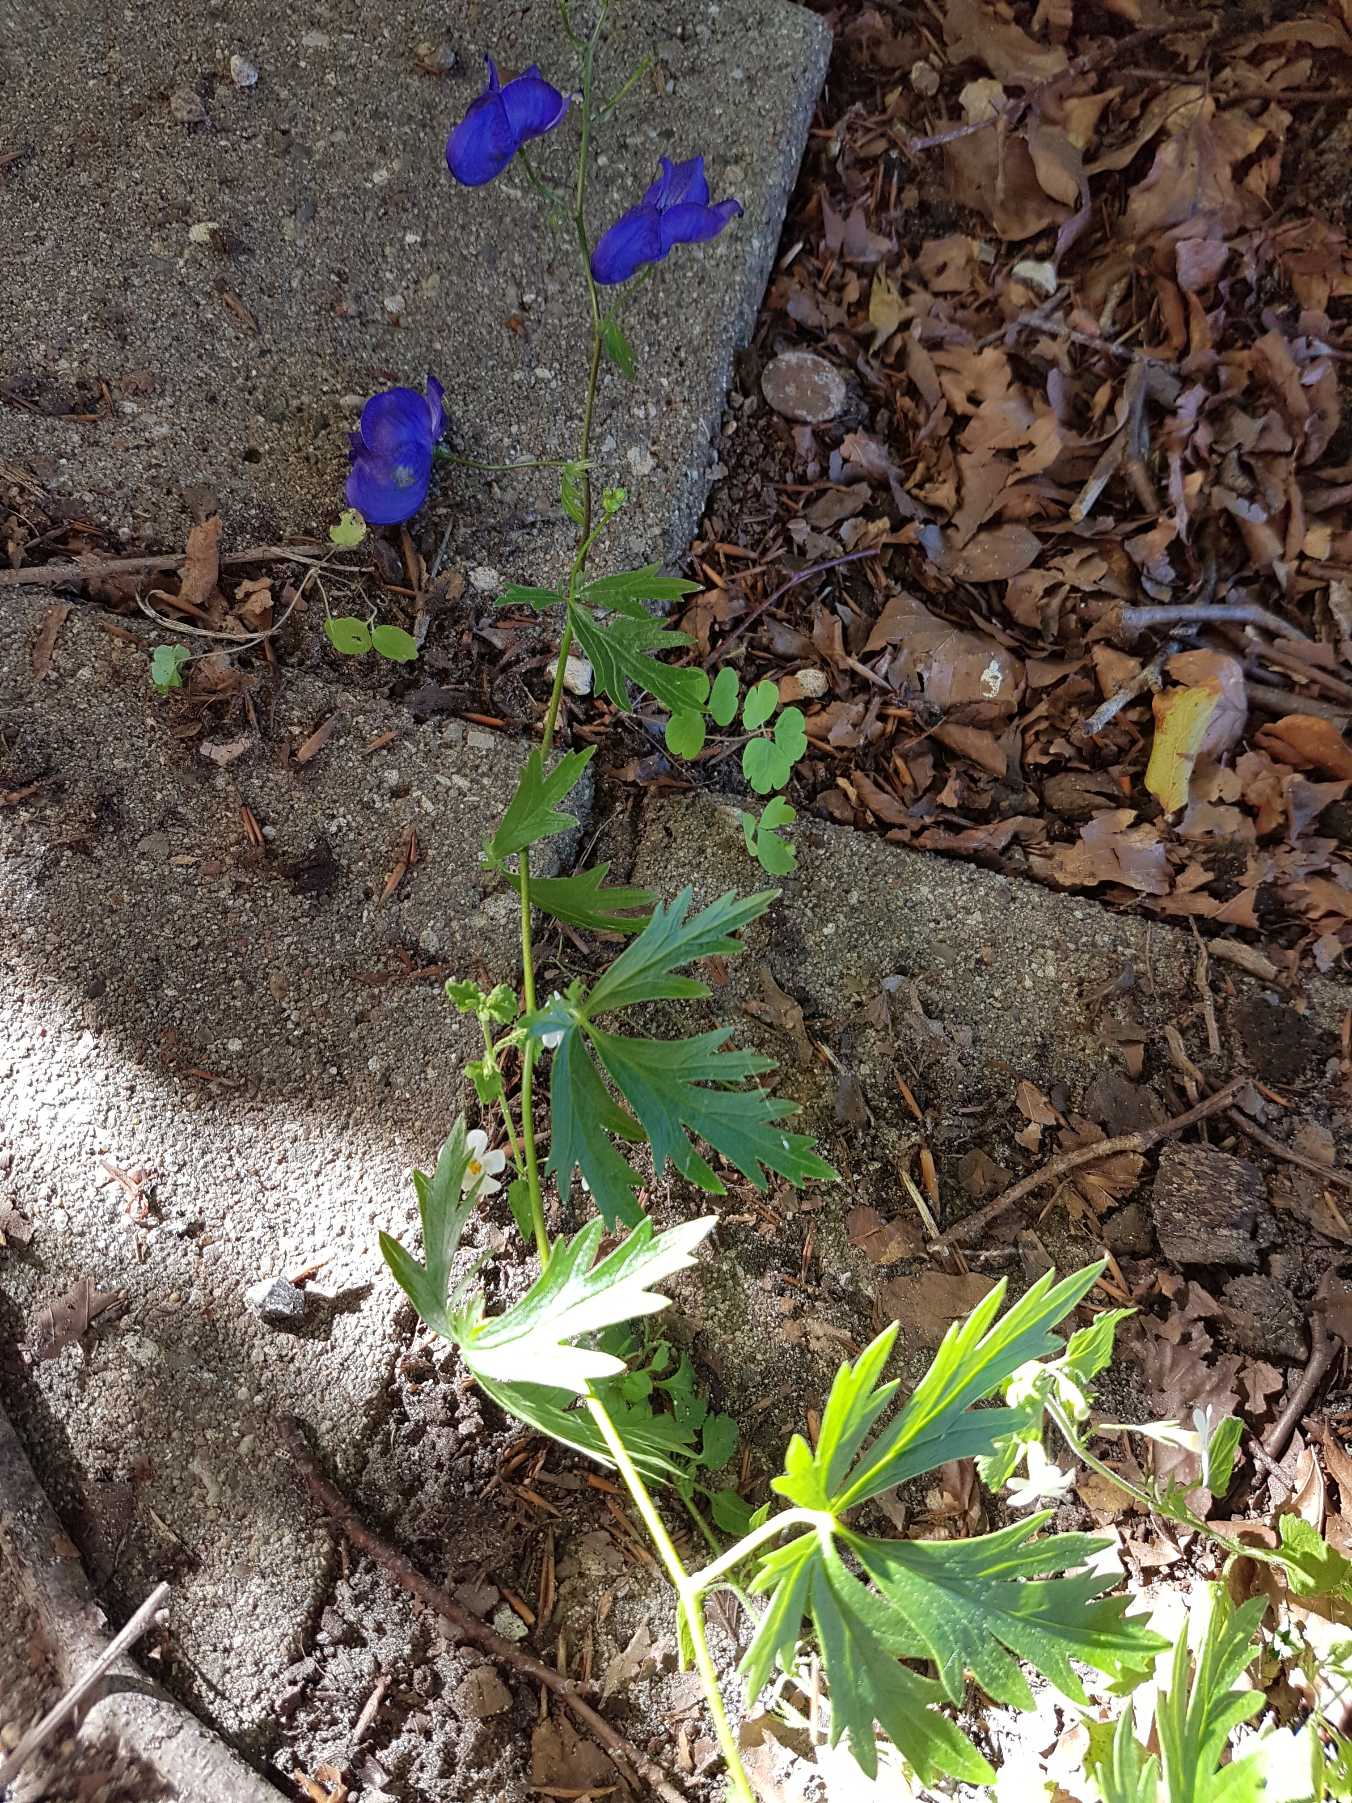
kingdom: Plantae
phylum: Tracheophyta
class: Magnoliopsida
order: Ranunculales
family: Ranunculaceae
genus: Aconitum
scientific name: Aconitum cammarum
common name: Have-stormhat
